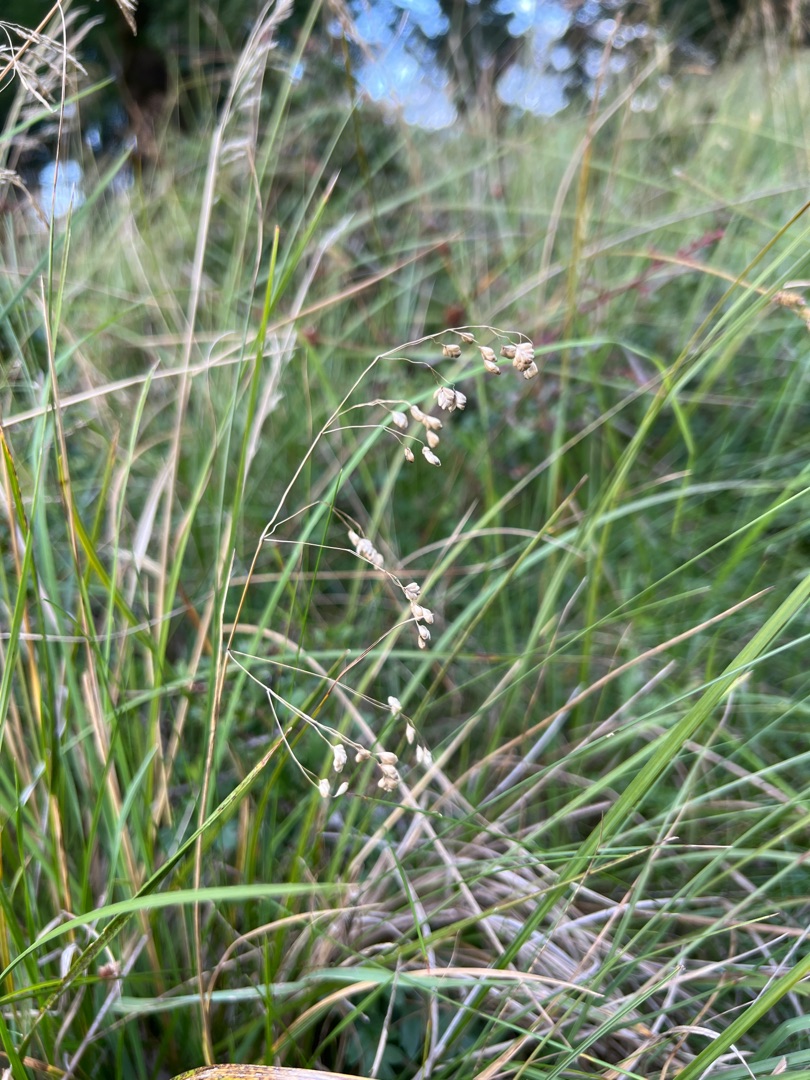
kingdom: Plantae
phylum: Tracheophyta
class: Liliopsida
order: Poales
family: Poaceae
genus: Briza
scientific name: Briza media
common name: Hjertegræs
